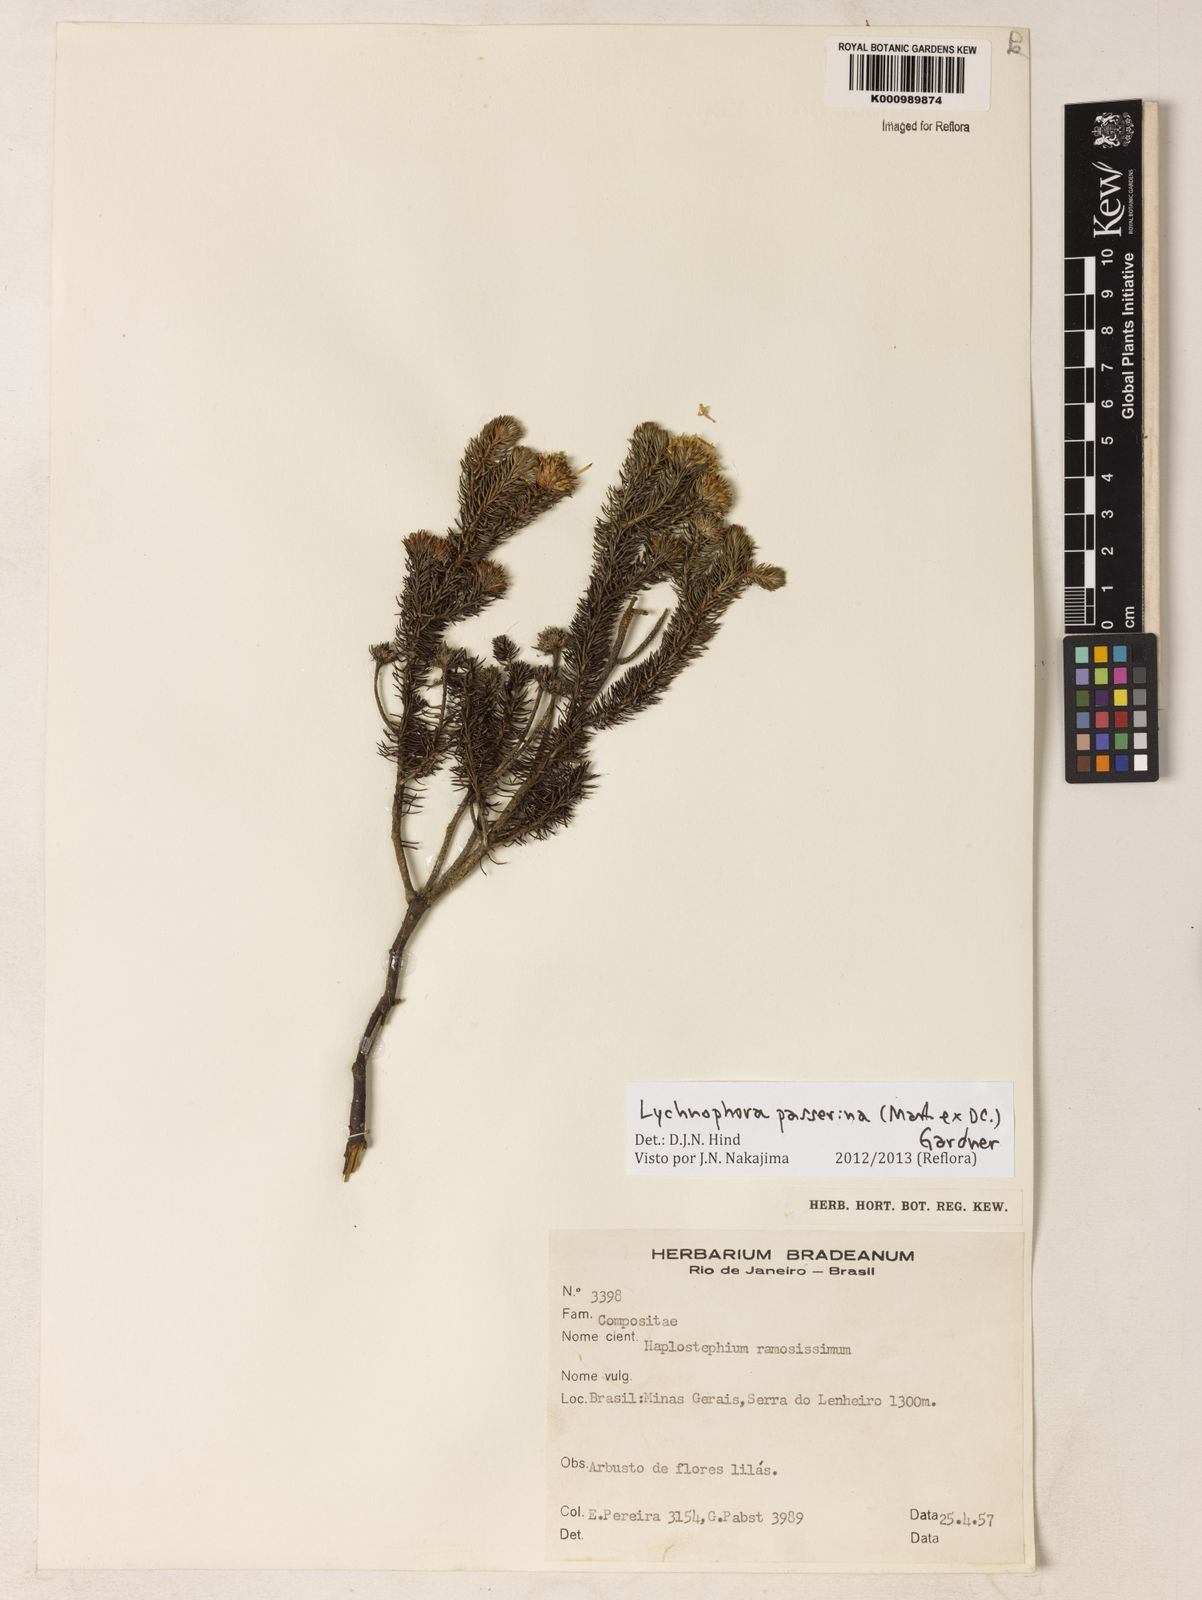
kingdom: Plantae
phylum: Tracheophyta
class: Magnoliopsida
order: Asterales
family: Asteraceae
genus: Lychnophora
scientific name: Lychnophora passerina
